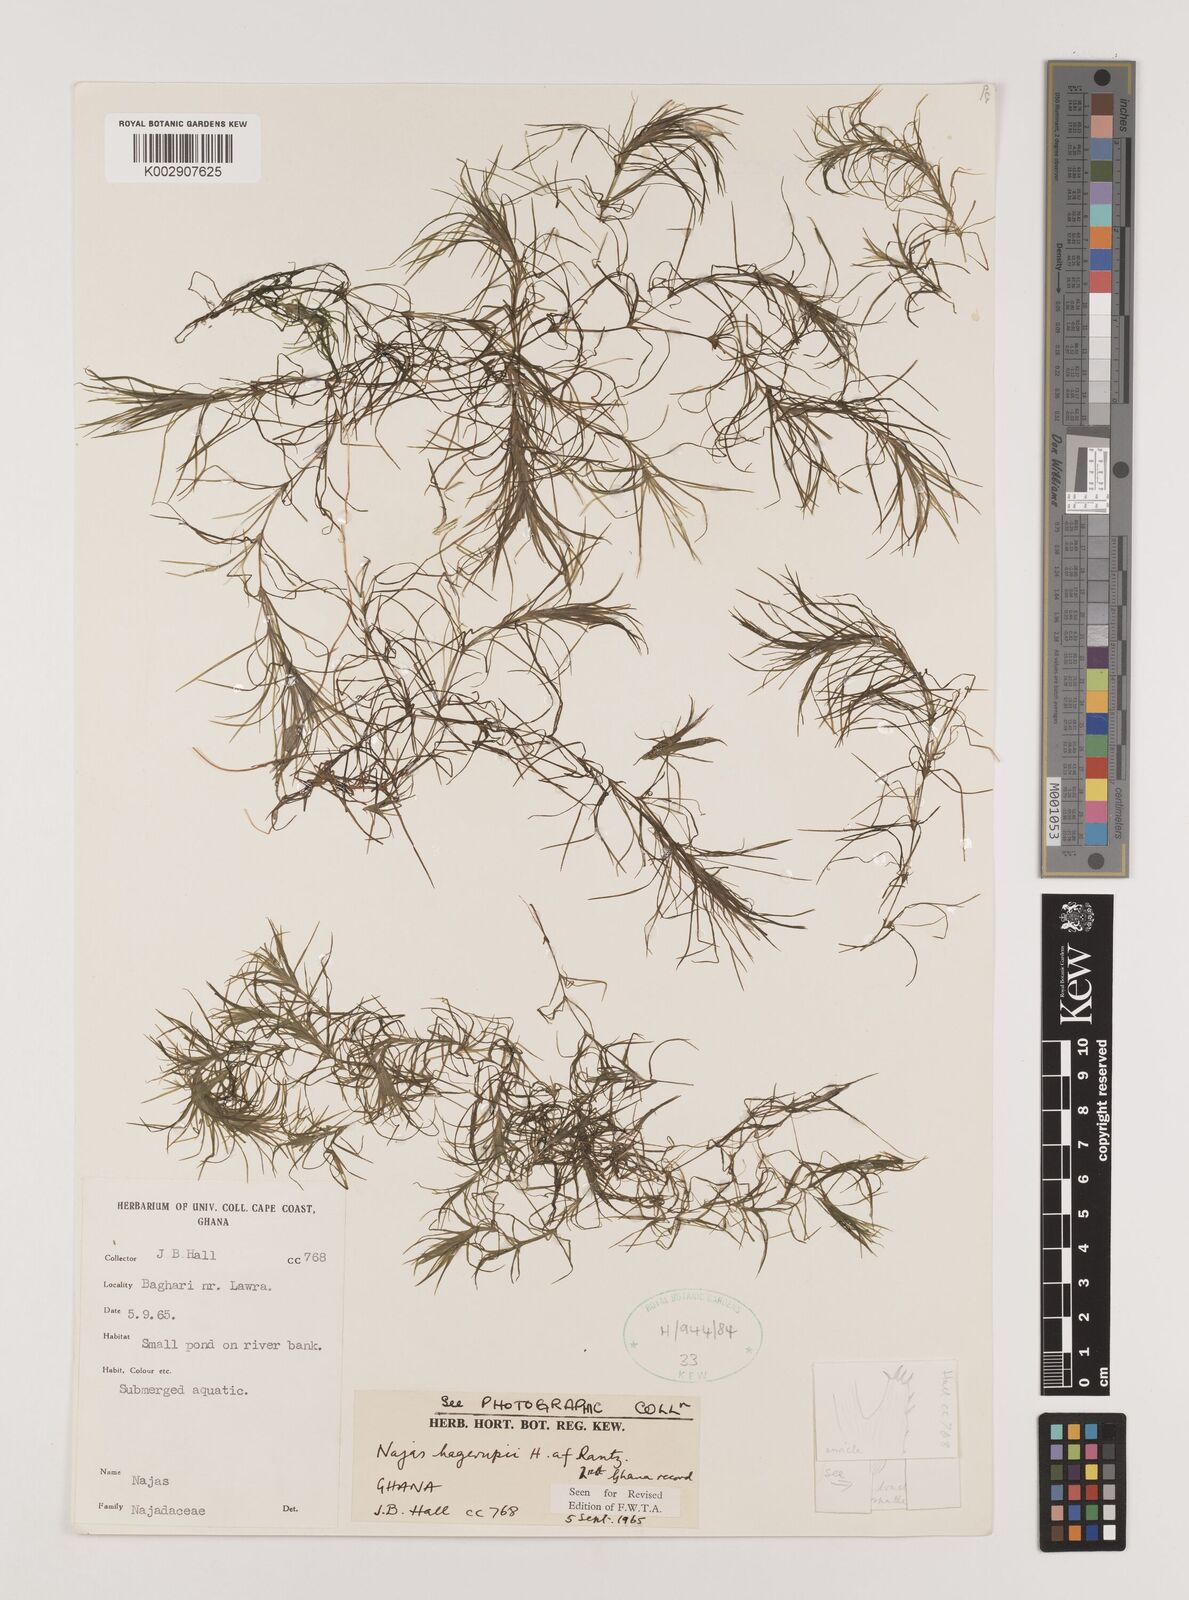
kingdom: Plantae
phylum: Tracheophyta
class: Liliopsida
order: Alismatales
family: Hydrocharitaceae
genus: Najas
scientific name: Najas hagerupii
